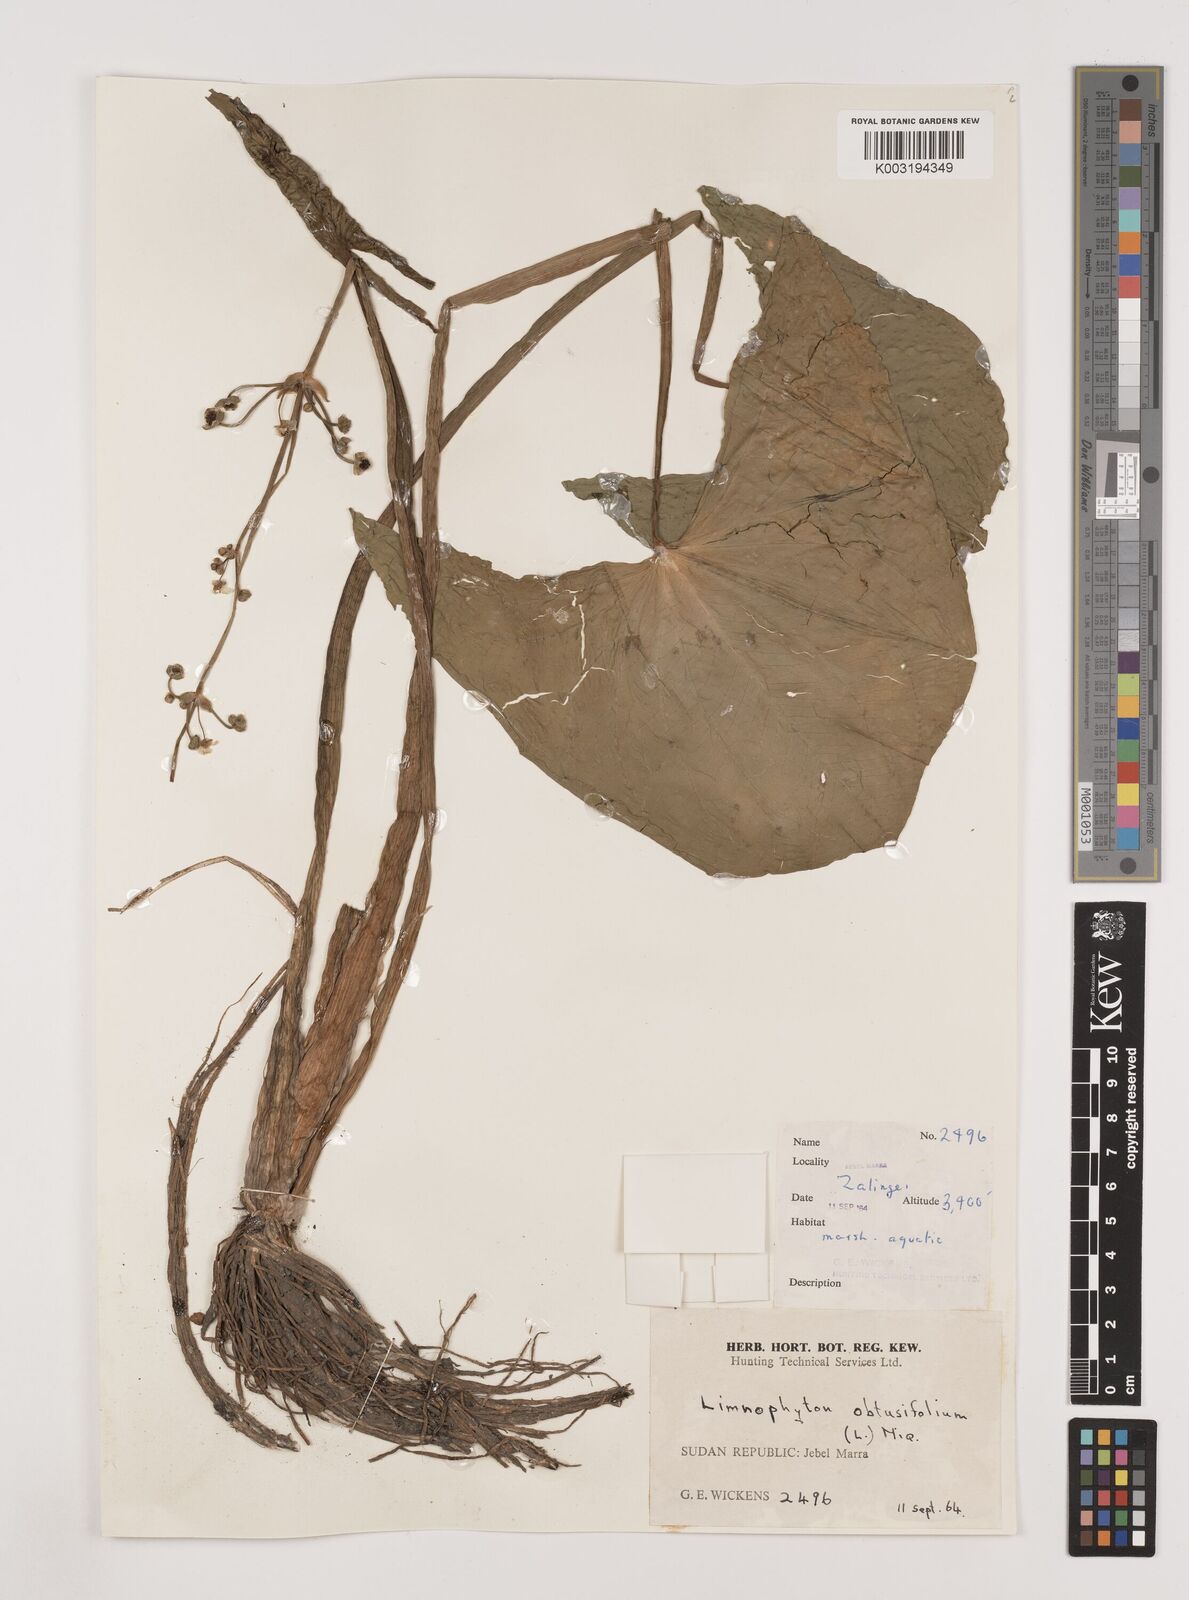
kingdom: Plantae
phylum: Tracheophyta
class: Liliopsida
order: Alismatales
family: Alismataceae
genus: Limnophyton
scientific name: Limnophyton obtusifolium
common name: Arrow head
